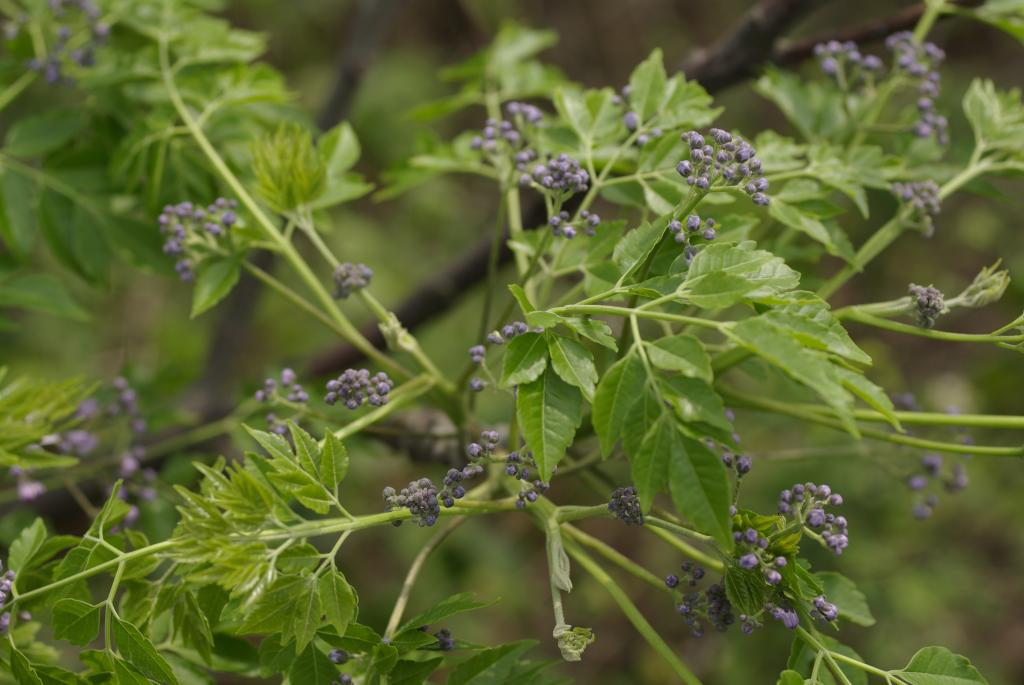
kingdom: Plantae
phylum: Tracheophyta
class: Magnoliopsida
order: Sapindales
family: Meliaceae
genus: Melia
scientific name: Melia azedarach
